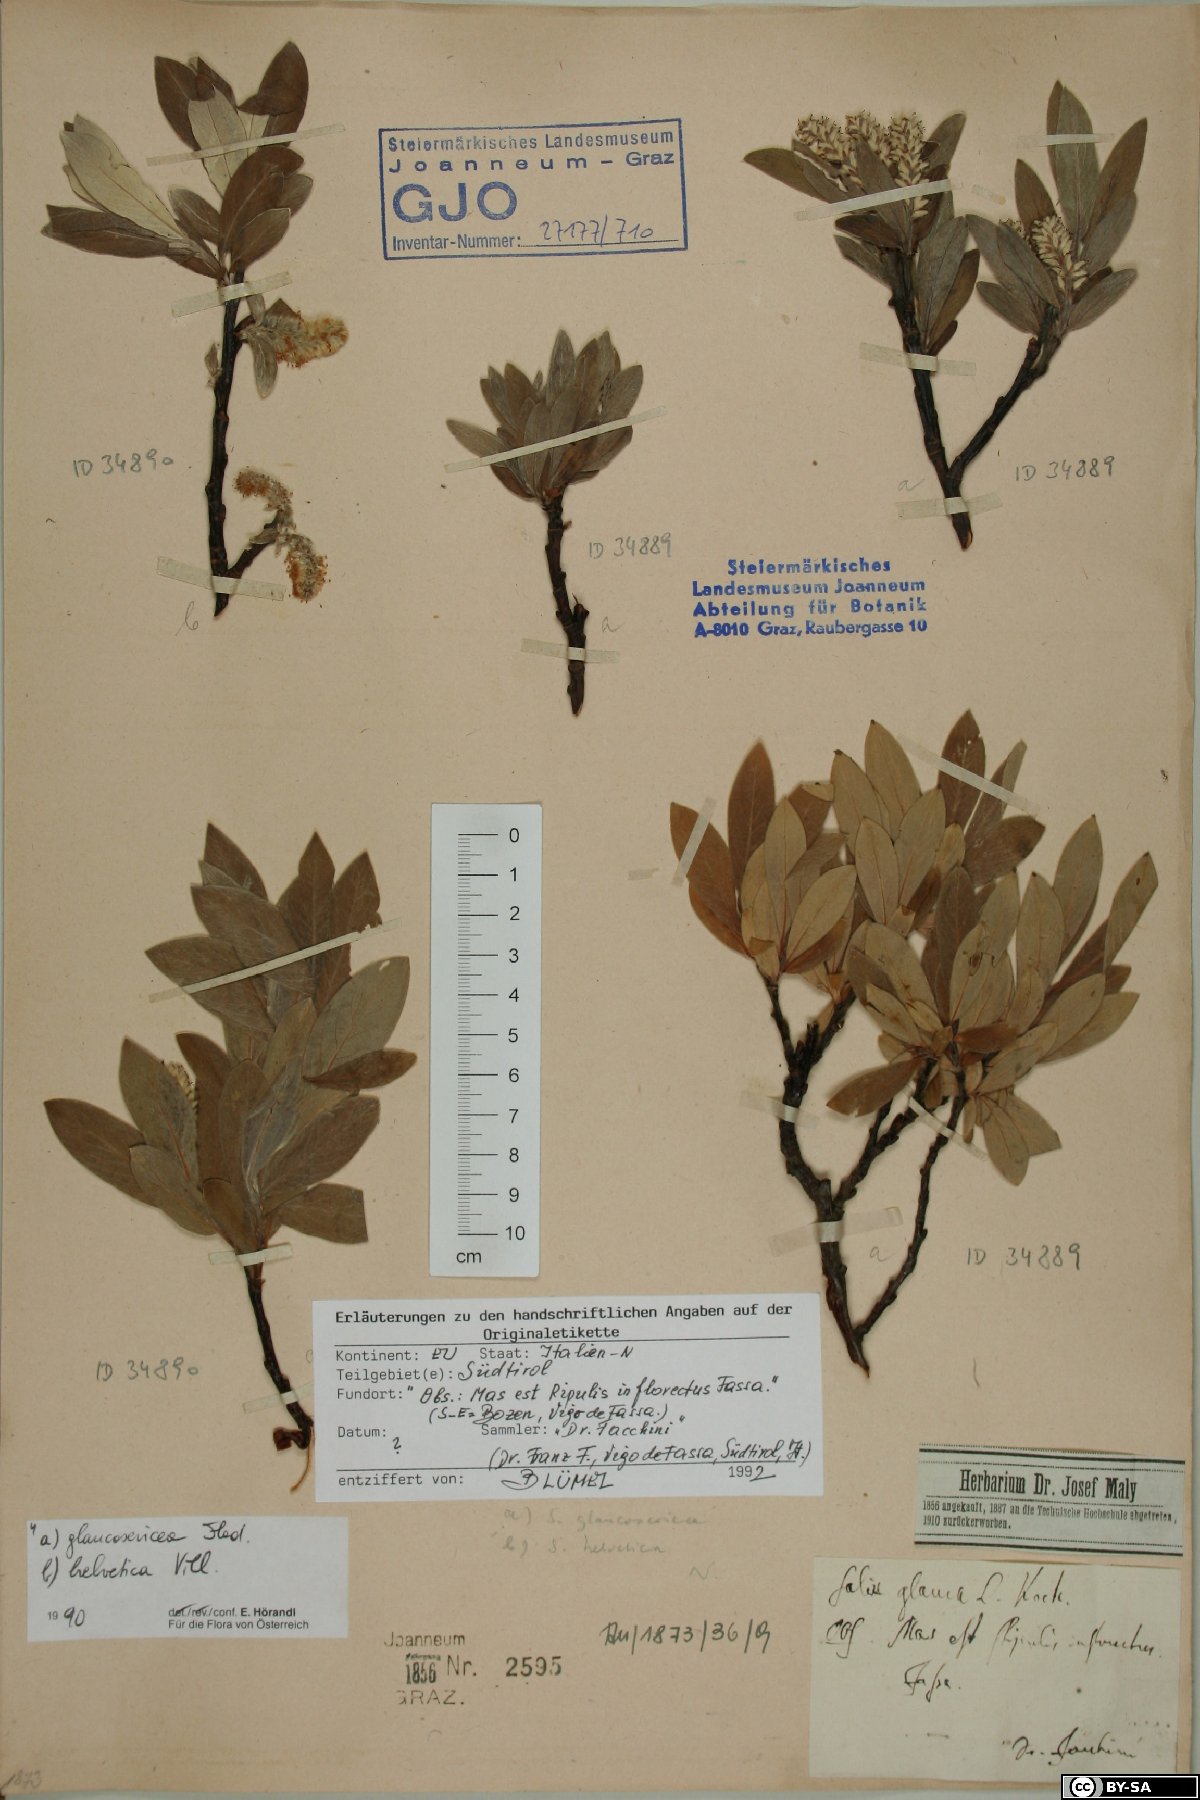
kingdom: Plantae
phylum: Tracheophyta
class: Magnoliopsida
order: Malpighiales
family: Salicaceae
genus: Salix
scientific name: Salix helvetica
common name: Swiss willow
